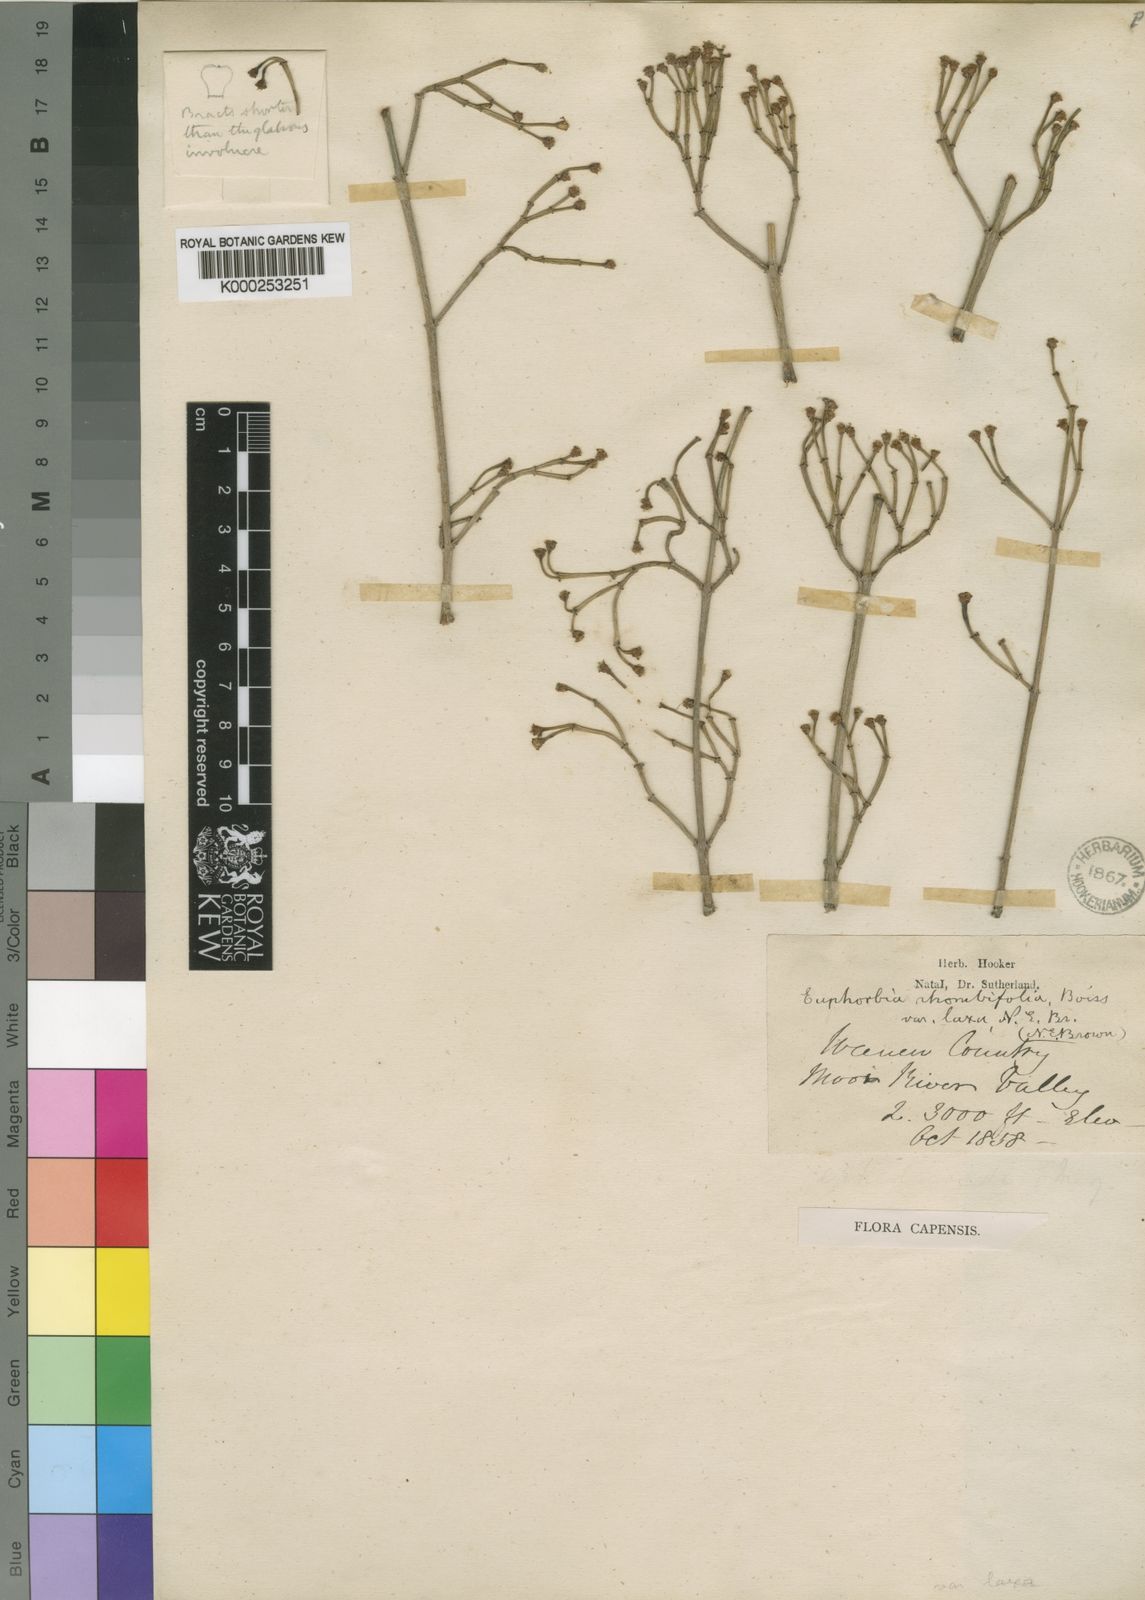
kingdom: Plantae
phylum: Tracheophyta
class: Magnoliopsida
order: Malpighiales
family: Euphorbiaceae
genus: Euphorbia
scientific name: Euphorbia spartaria
